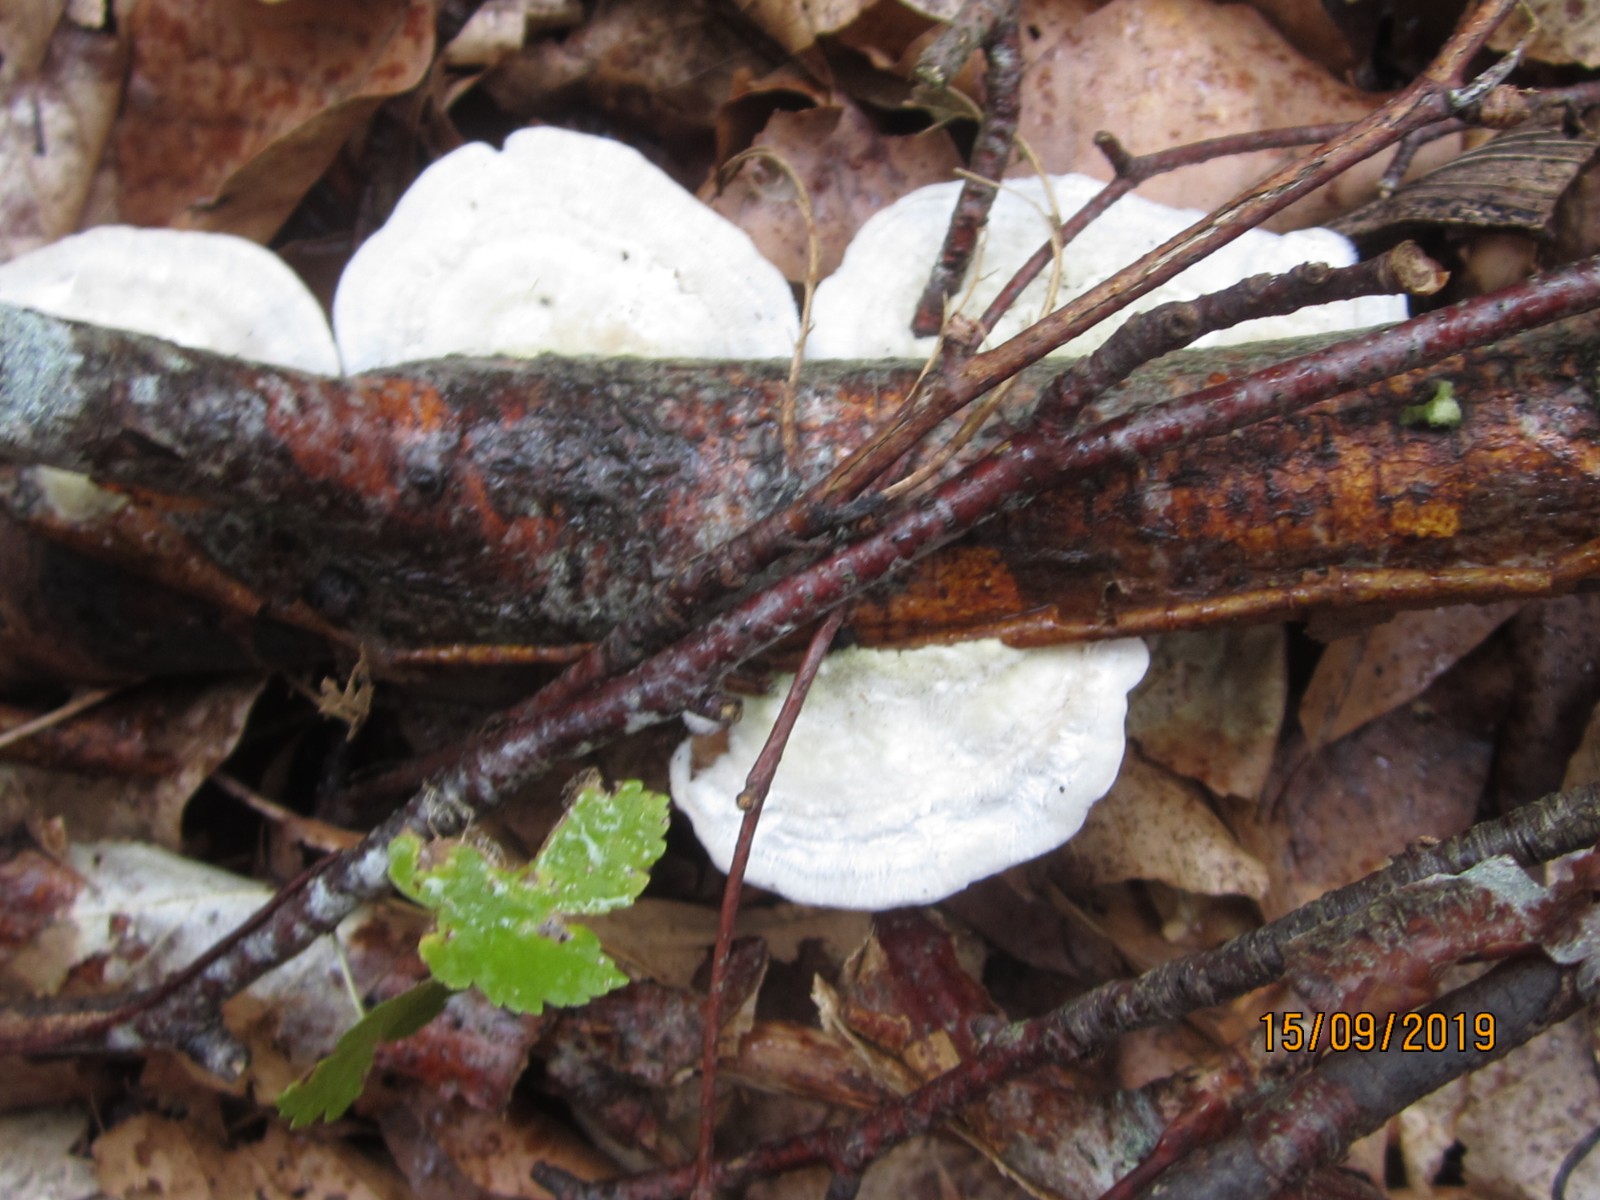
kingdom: Fungi
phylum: Basidiomycota
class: Agaricomycetes
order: Polyporales
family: Polyporaceae
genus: Trametes
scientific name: Trametes hirsuta
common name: håret læderporesvamp
